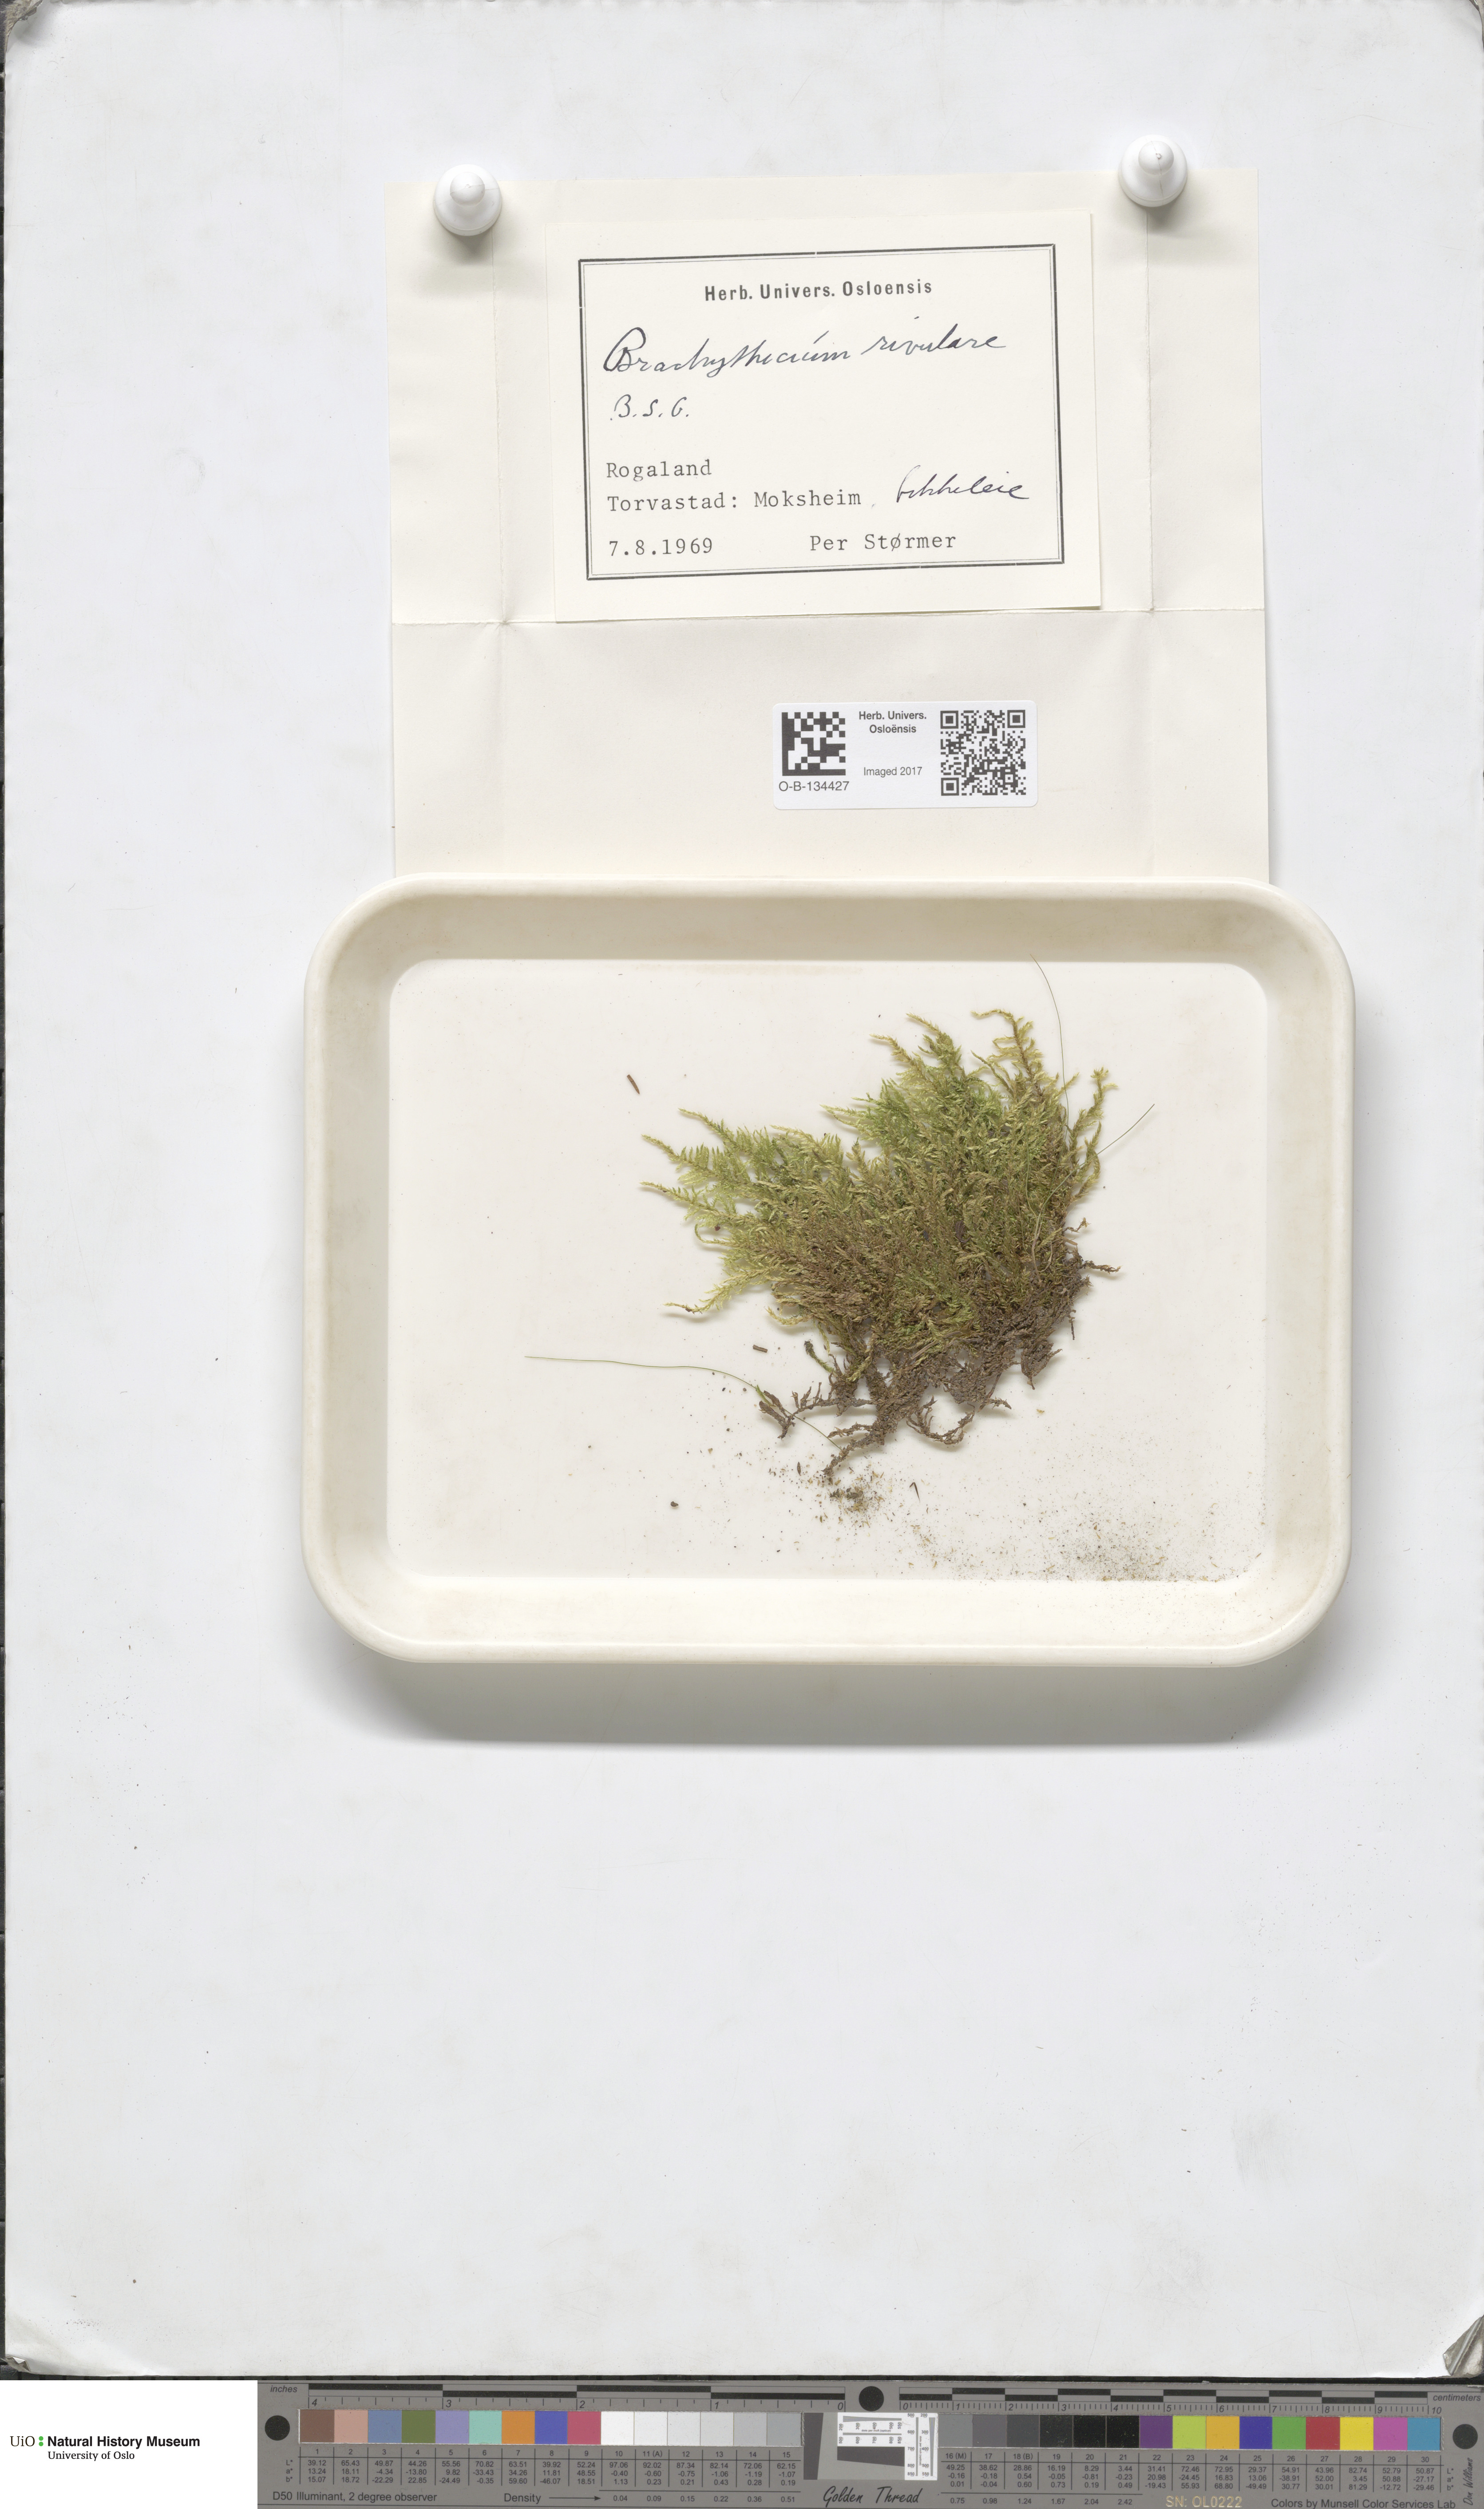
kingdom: Plantae
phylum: Bryophyta
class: Bryopsida
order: Hypnales
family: Brachytheciaceae
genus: Brachythecium
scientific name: Brachythecium rivulare
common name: River ragged moss
